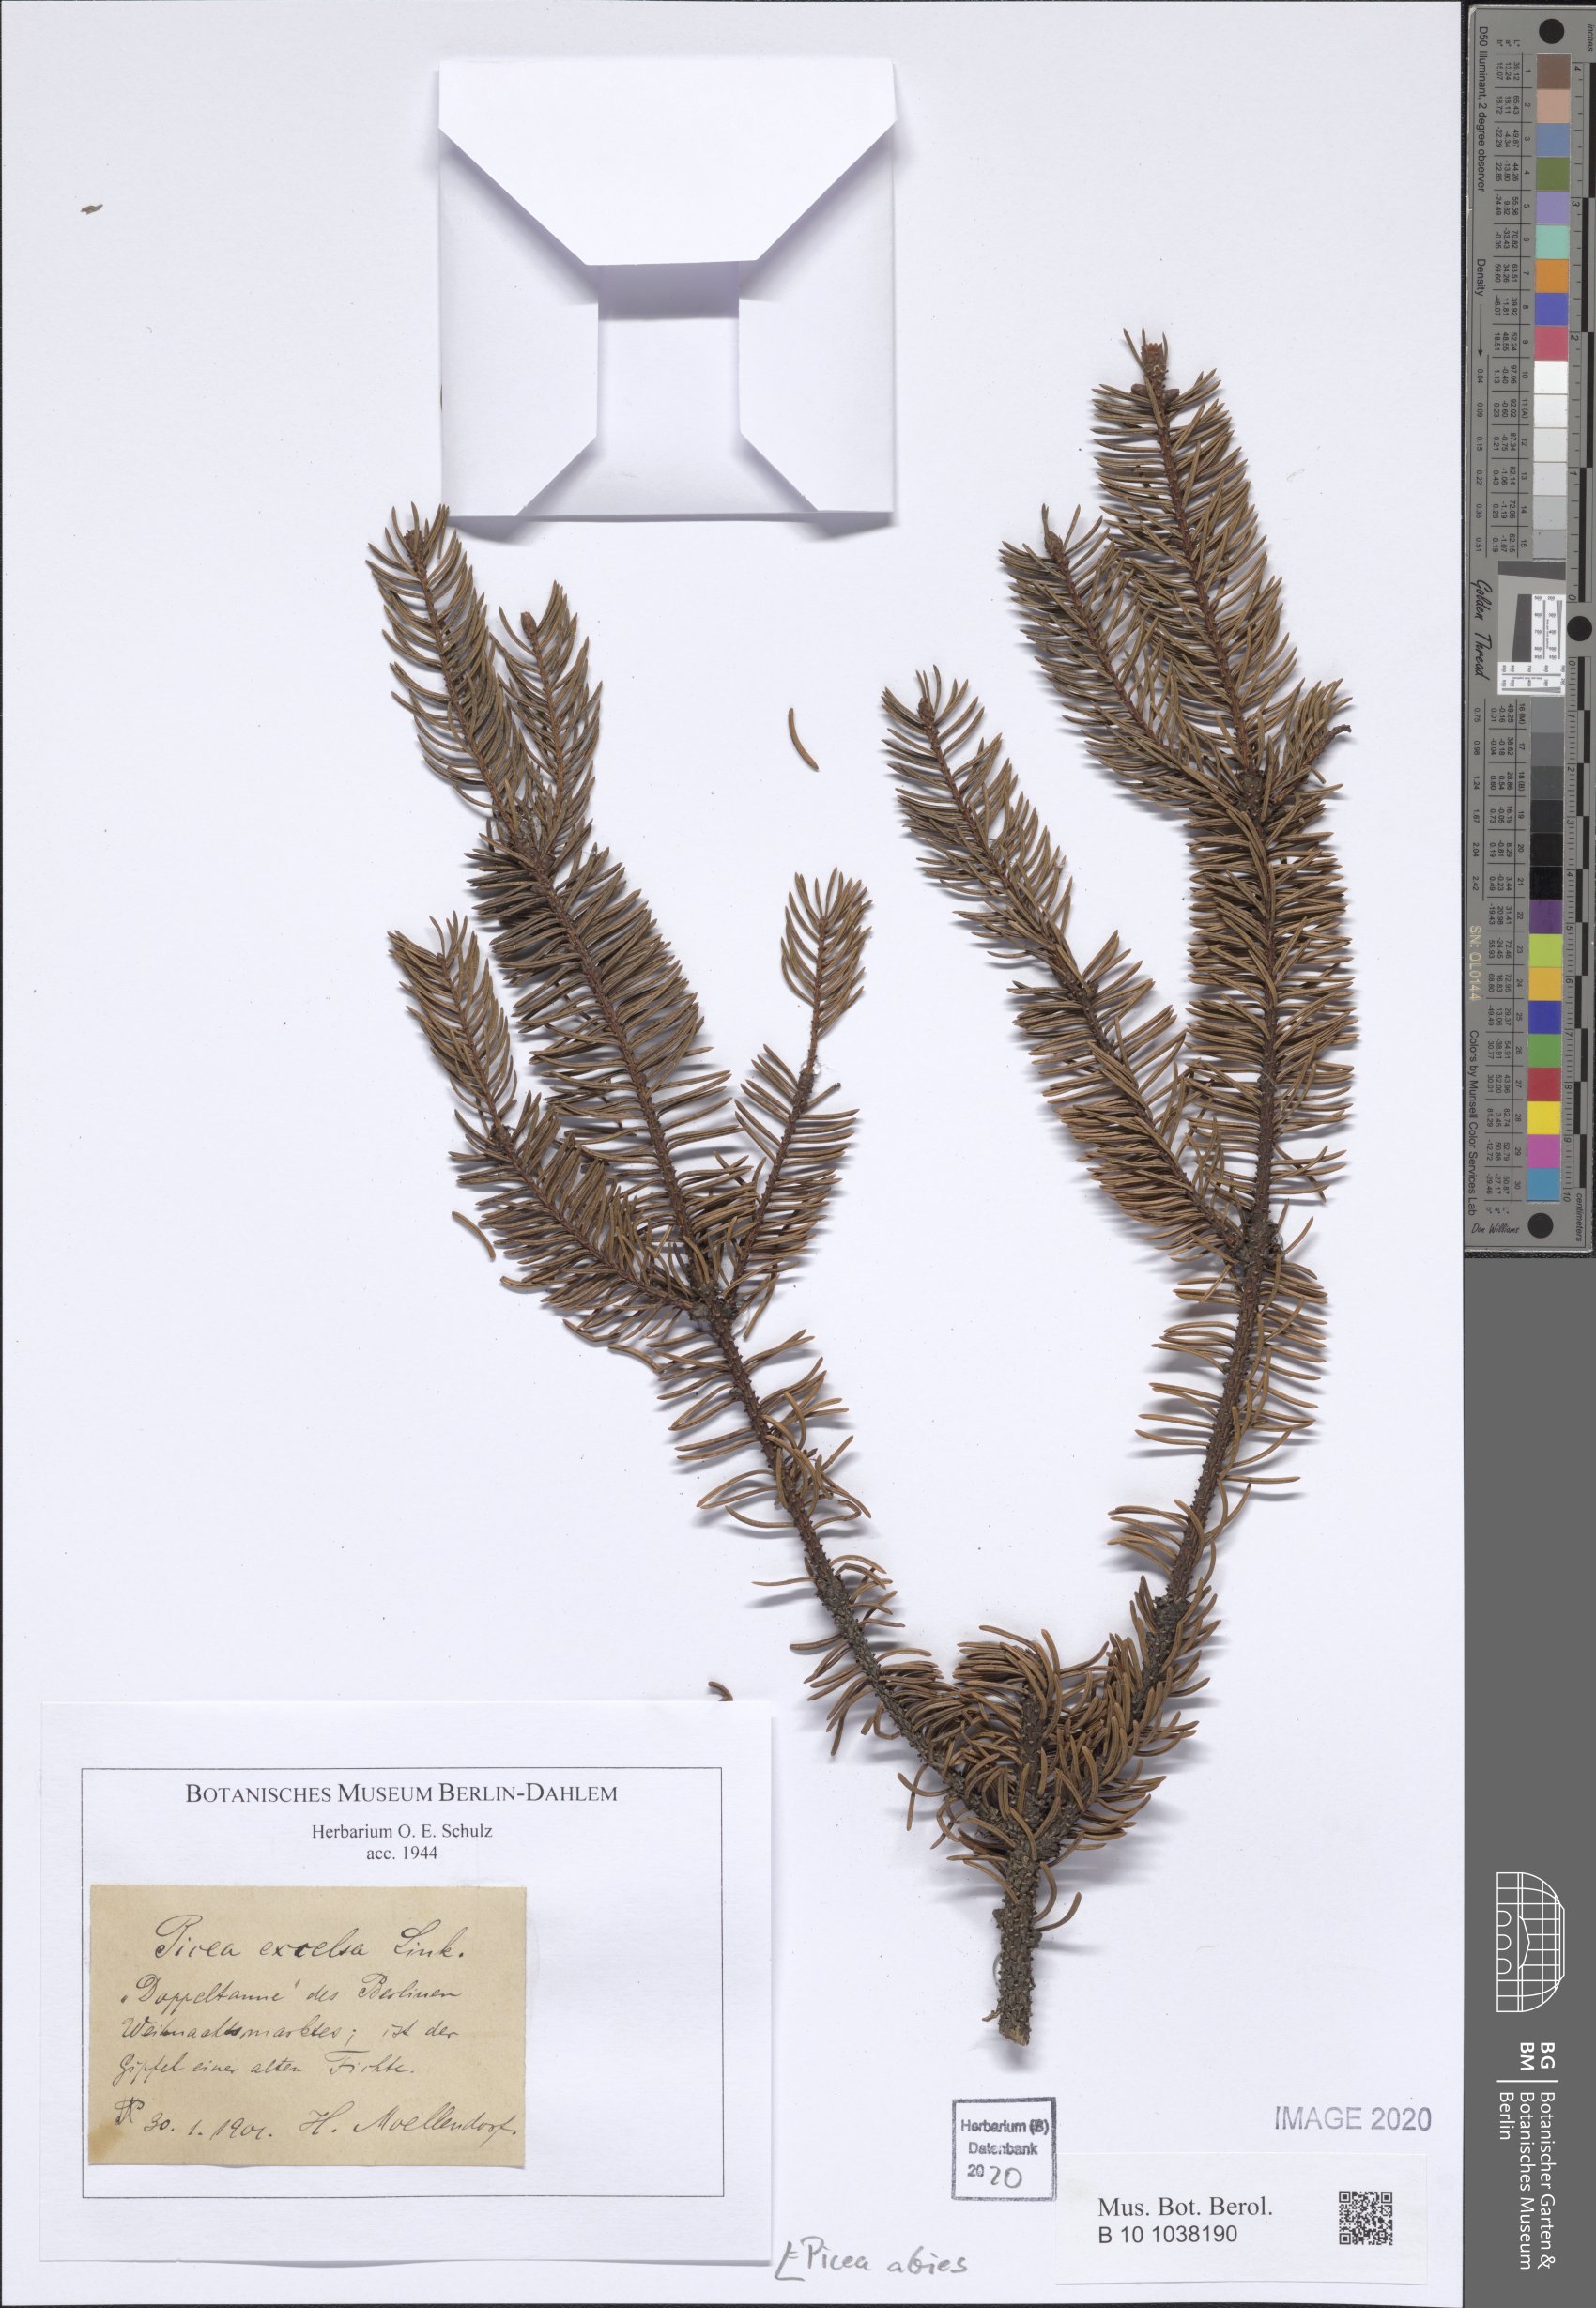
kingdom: Plantae
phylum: Tracheophyta
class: Pinopsida
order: Pinales
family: Pinaceae
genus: Picea
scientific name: Picea abies
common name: Norway spruce
